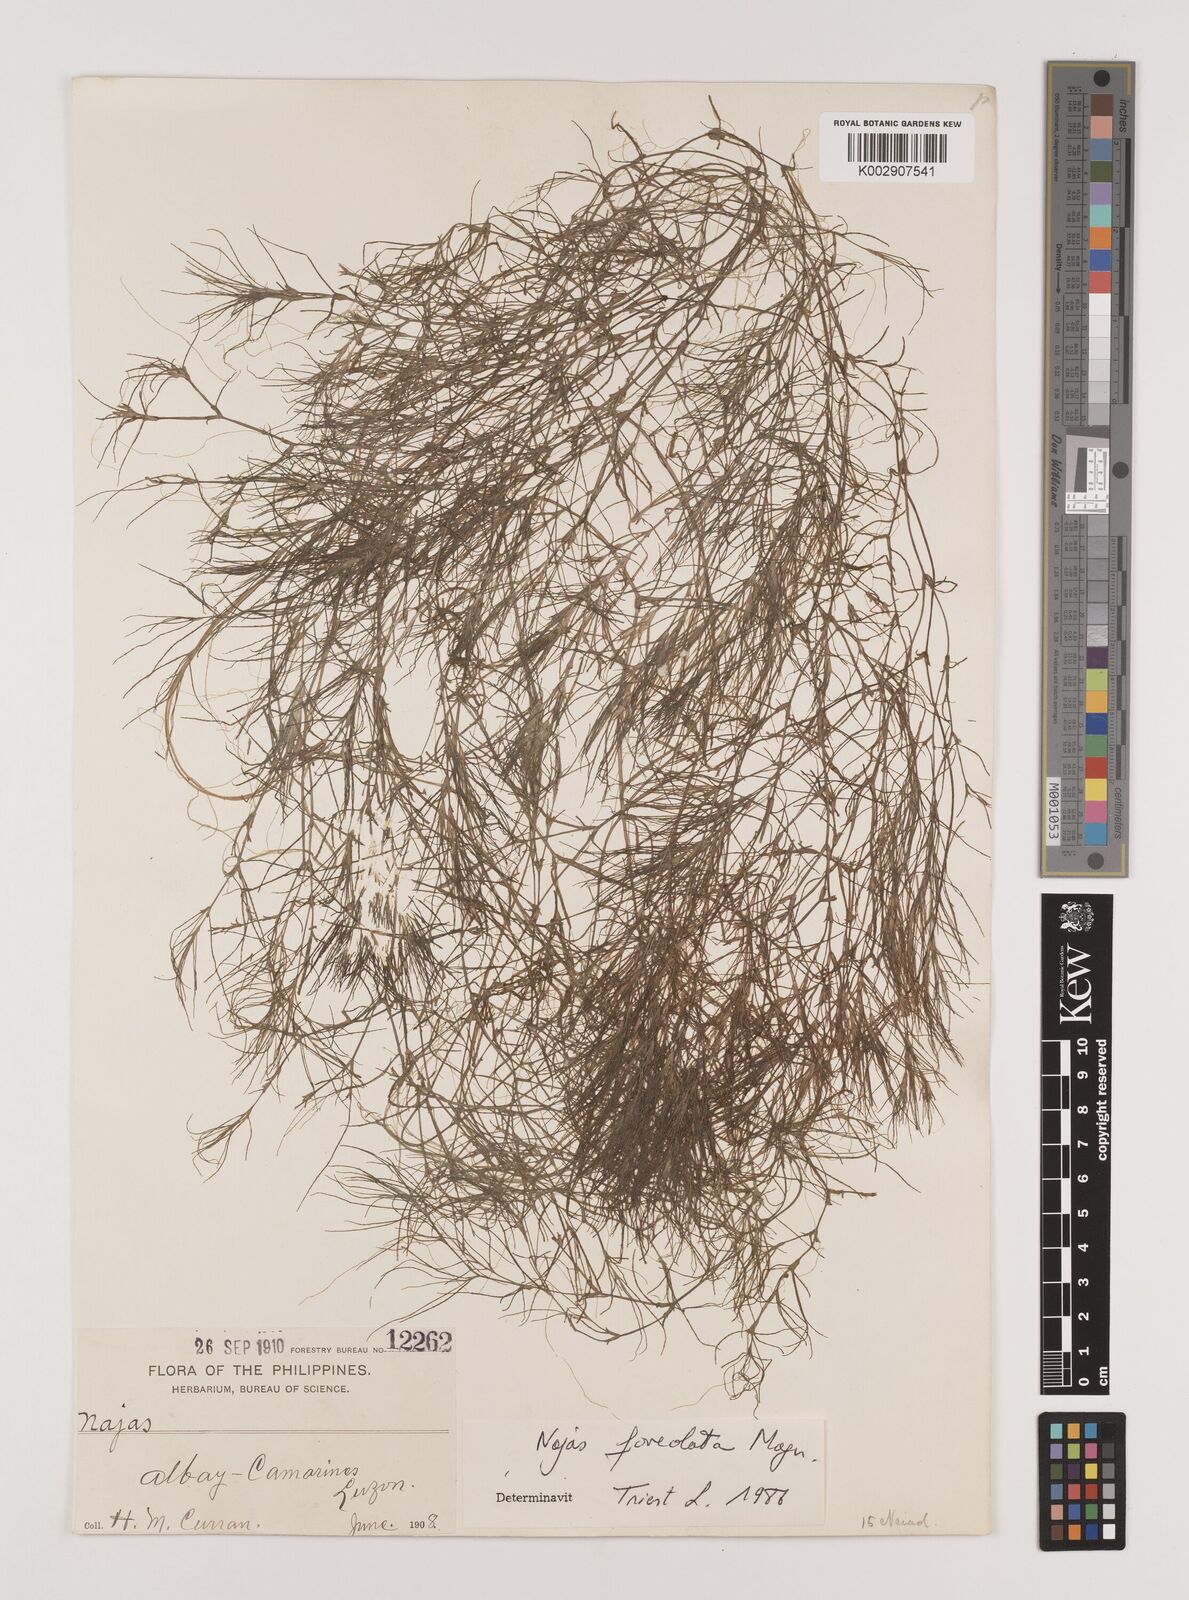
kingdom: Plantae
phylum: Tracheophyta
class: Liliopsida
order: Alismatales
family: Hydrocharitaceae
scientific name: Hydrocharitaceae
